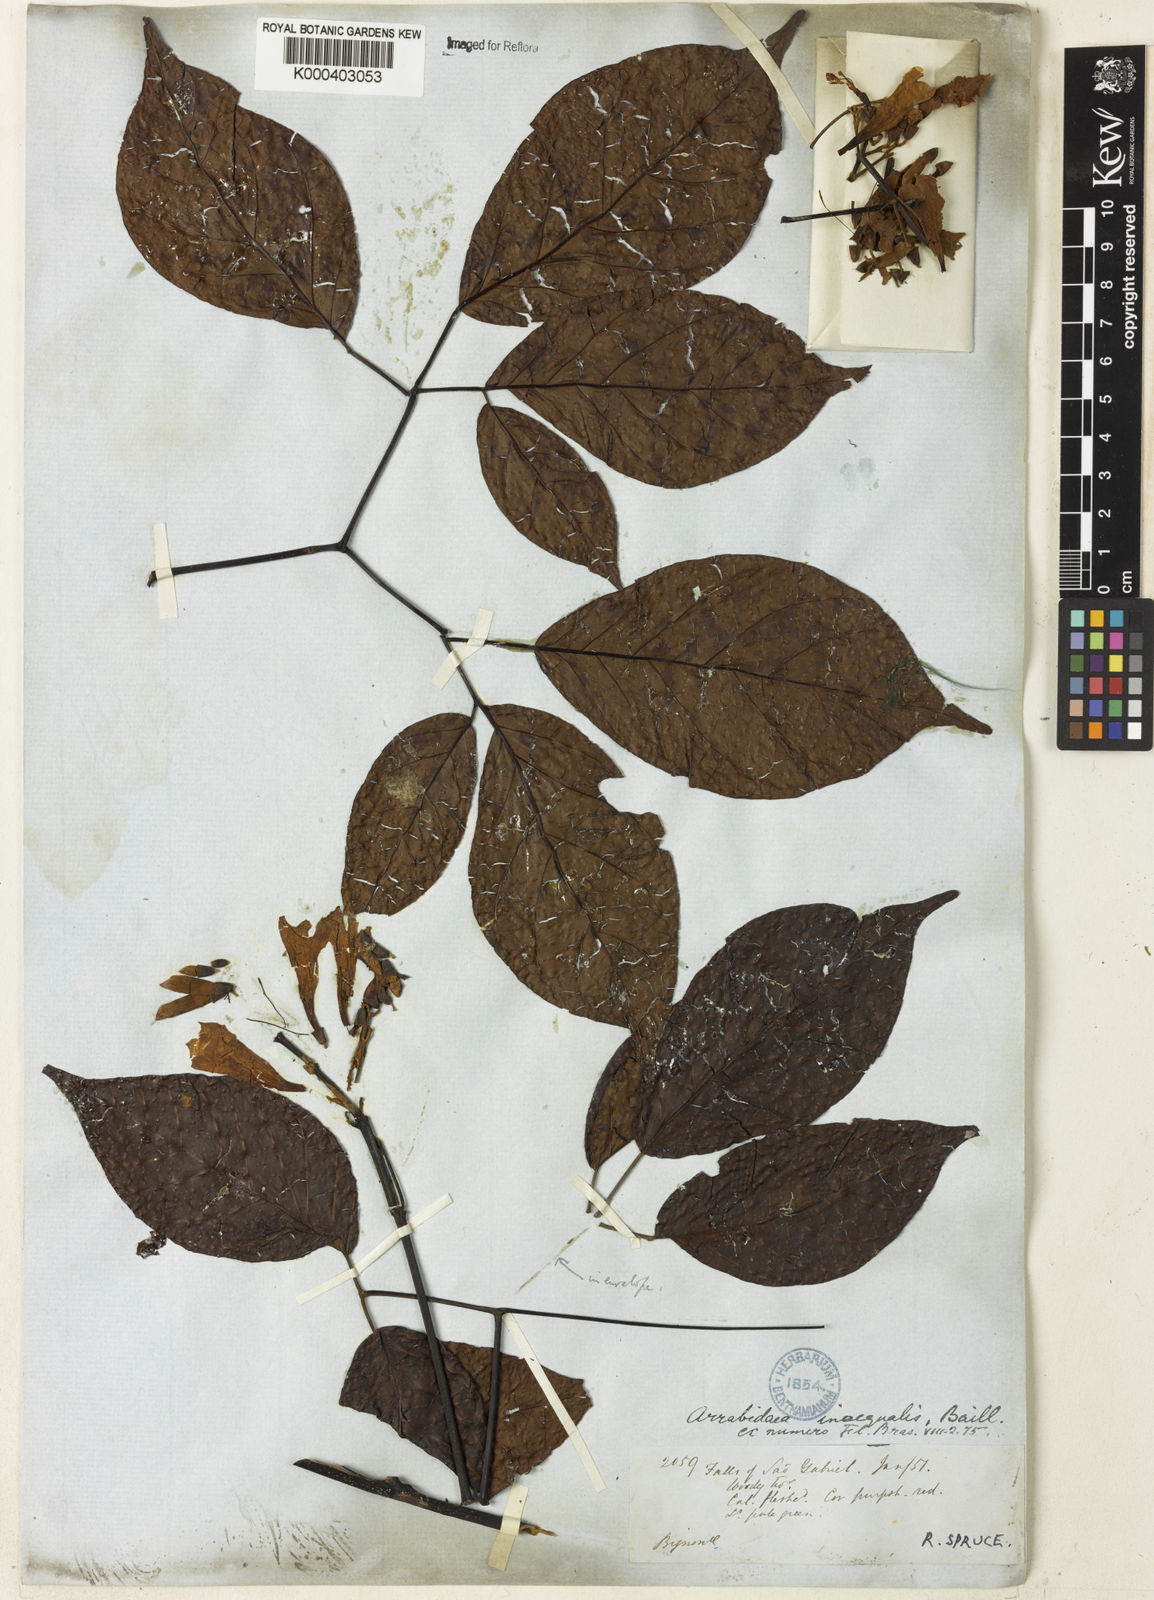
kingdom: Plantae
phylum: Tracheophyta
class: Magnoliopsida
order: Lamiales
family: Bignoniaceae
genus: Cuspidaria
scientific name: Cuspidaria inaequalis
